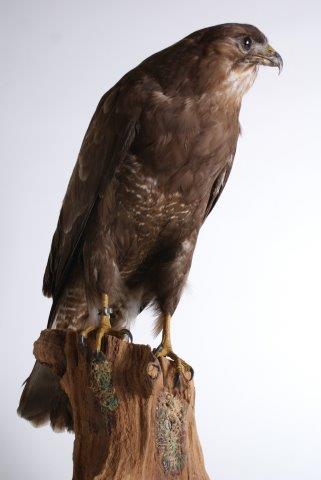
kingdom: Animalia
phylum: Chordata
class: Aves
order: Accipitriformes
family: Accipitridae
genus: Buteo
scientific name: Buteo buteo
